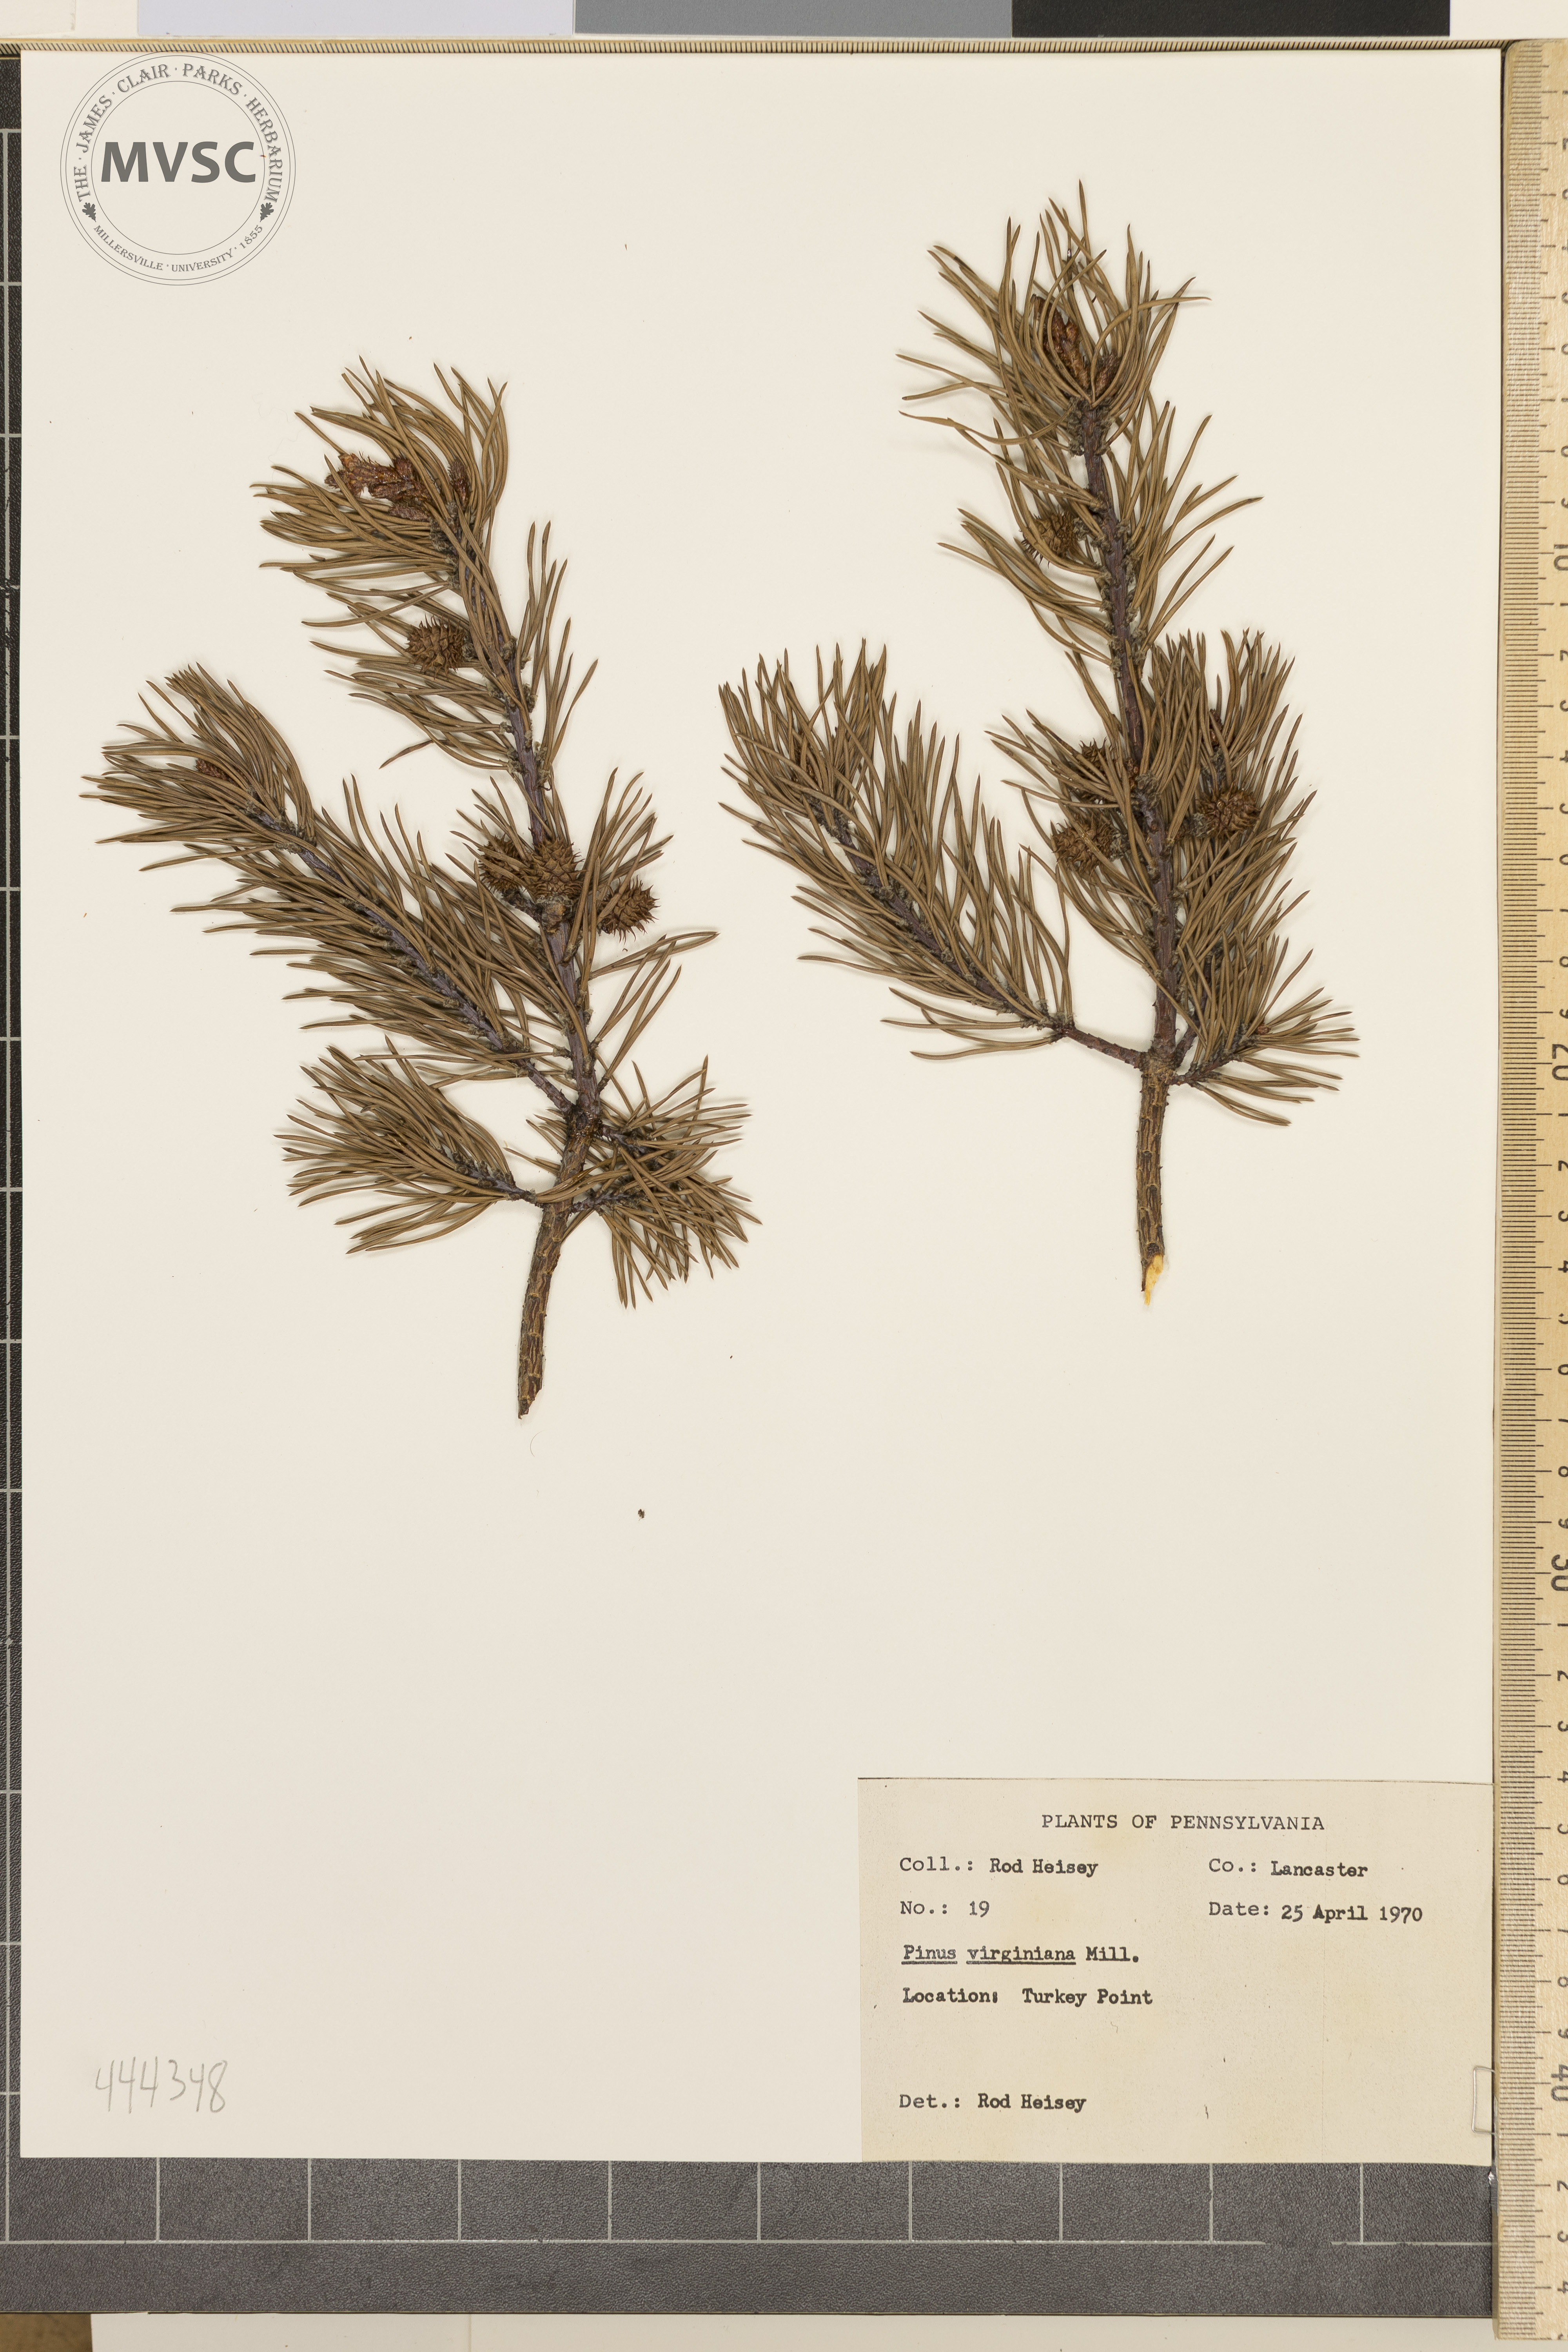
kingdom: Plantae
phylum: Tracheophyta
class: Pinopsida
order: Pinales
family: Pinaceae
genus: Pinus
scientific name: Pinus virginiana
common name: Scrub pine
